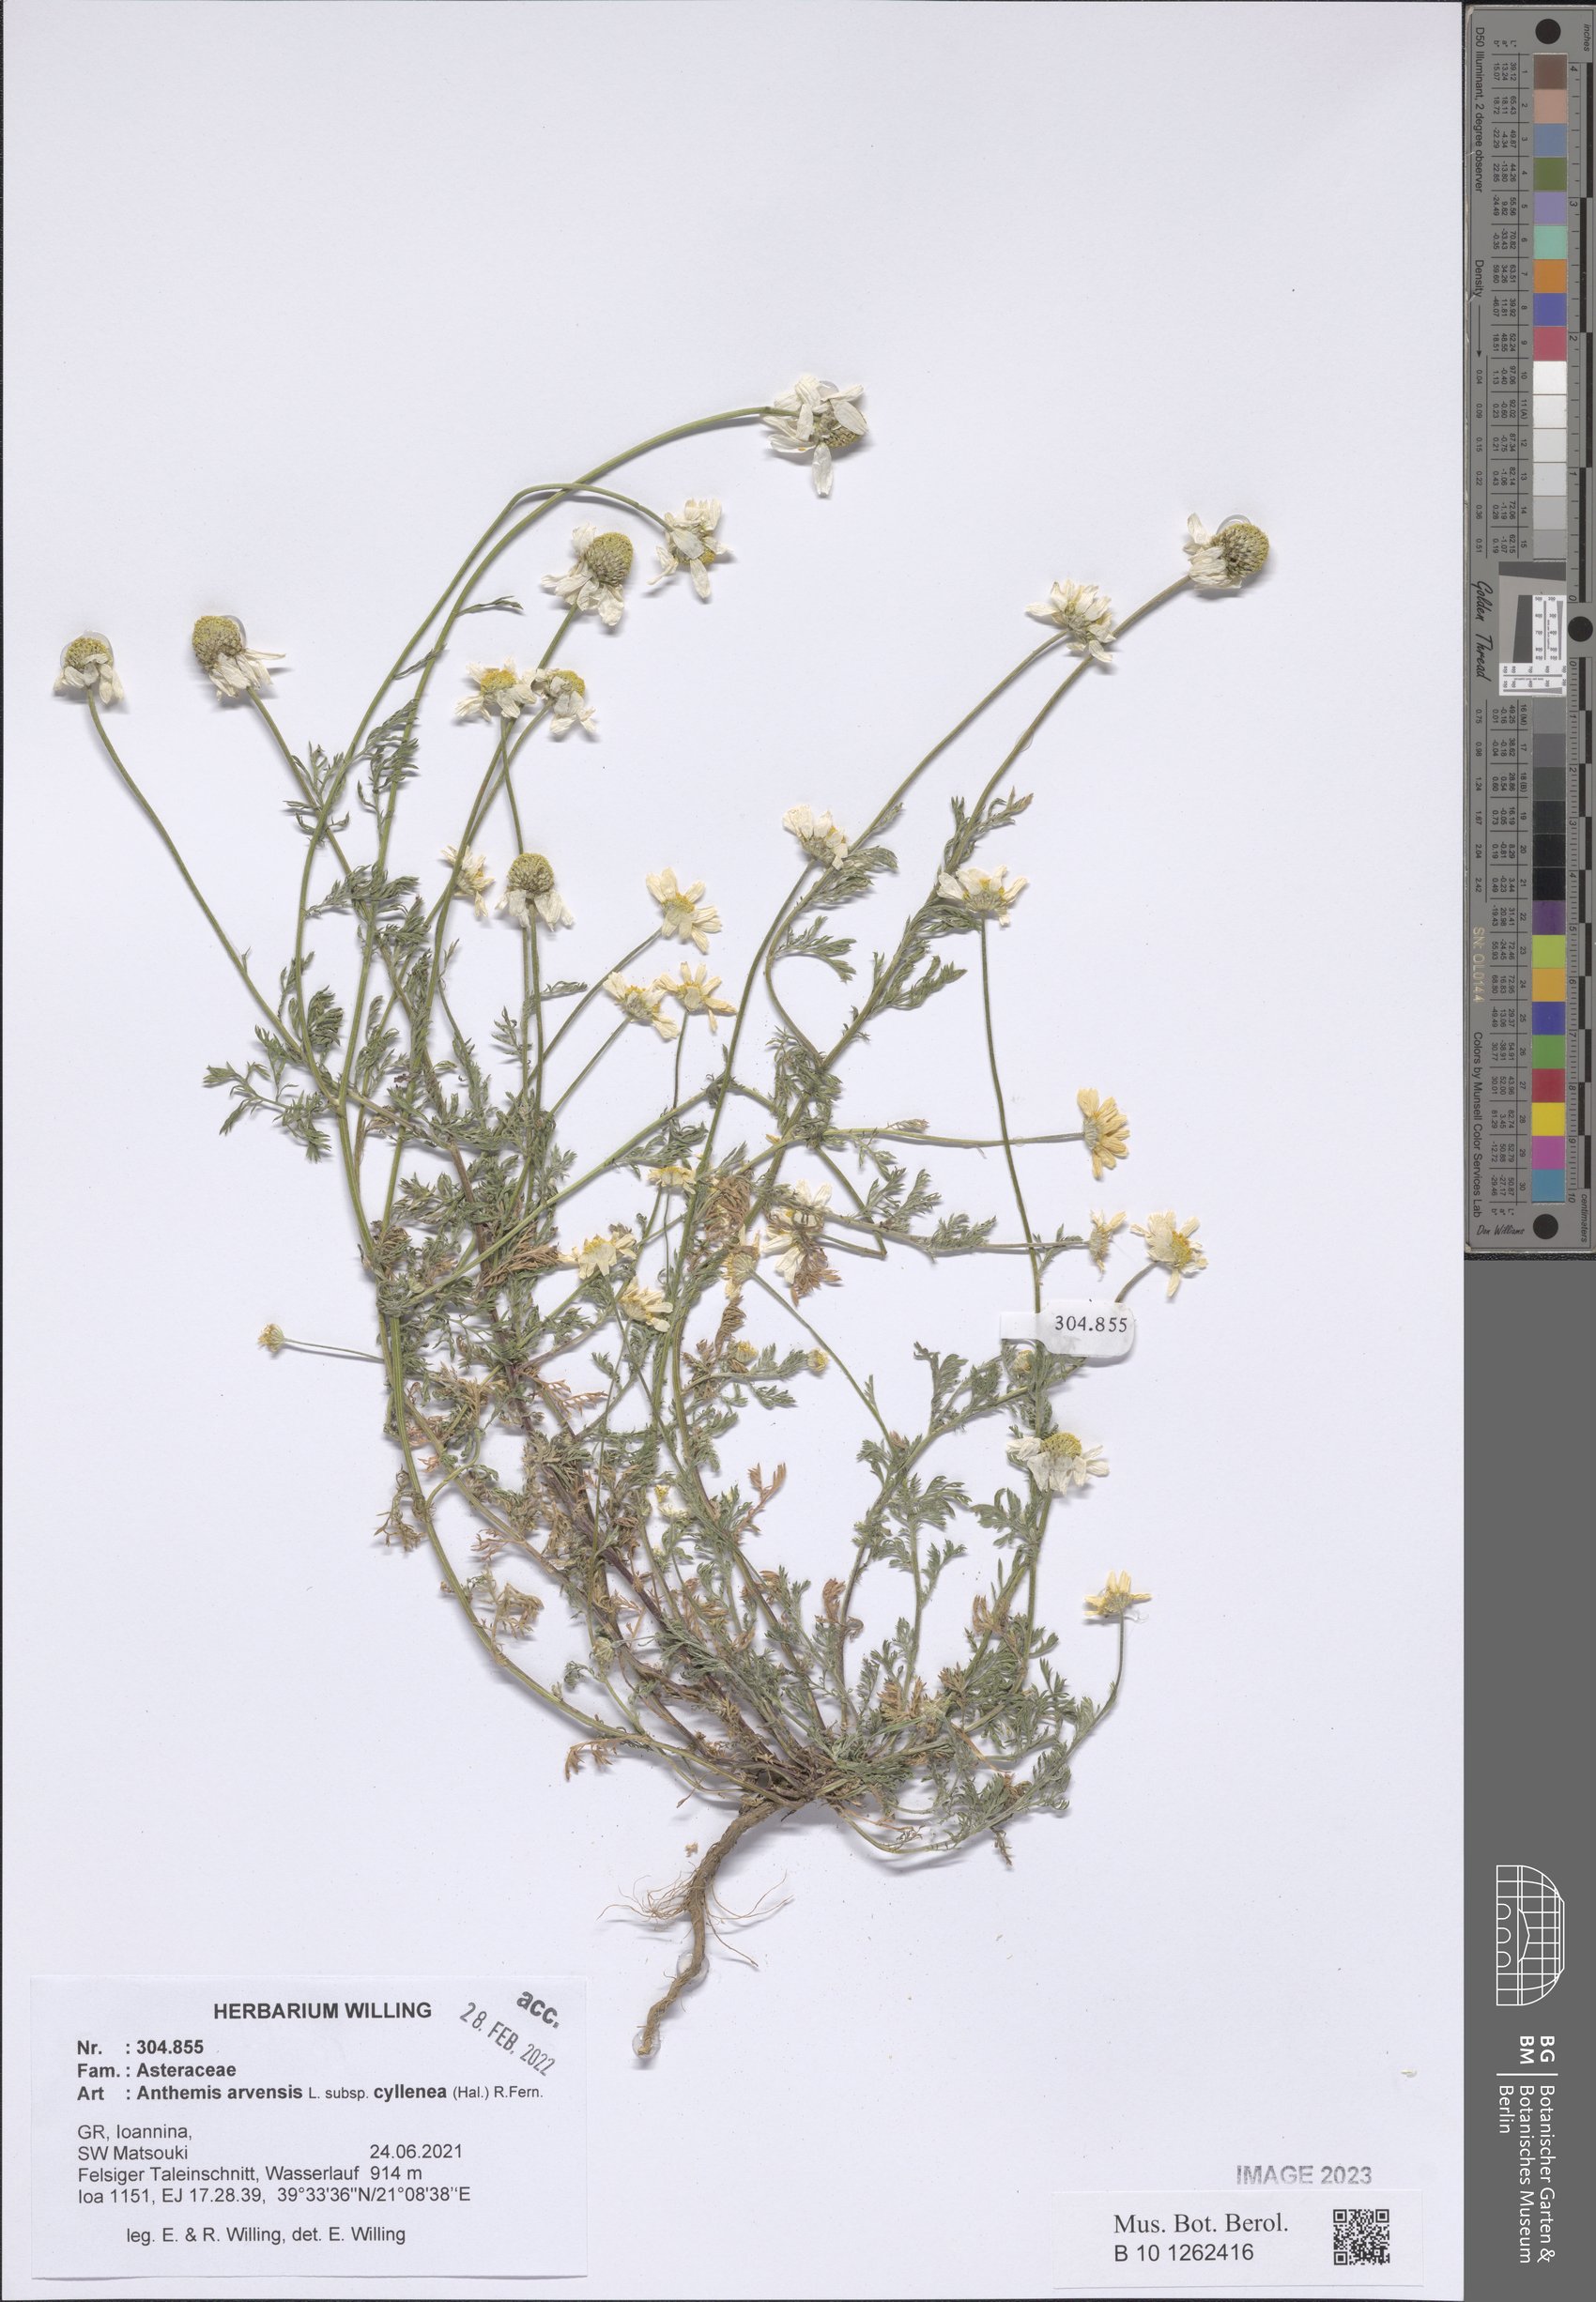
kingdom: Plantae
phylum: Tracheophyta
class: Magnoliopsida
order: Asterales
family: Asteraceae
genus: Anthemis
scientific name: Anthemis arvensis
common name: Corn chamomile
